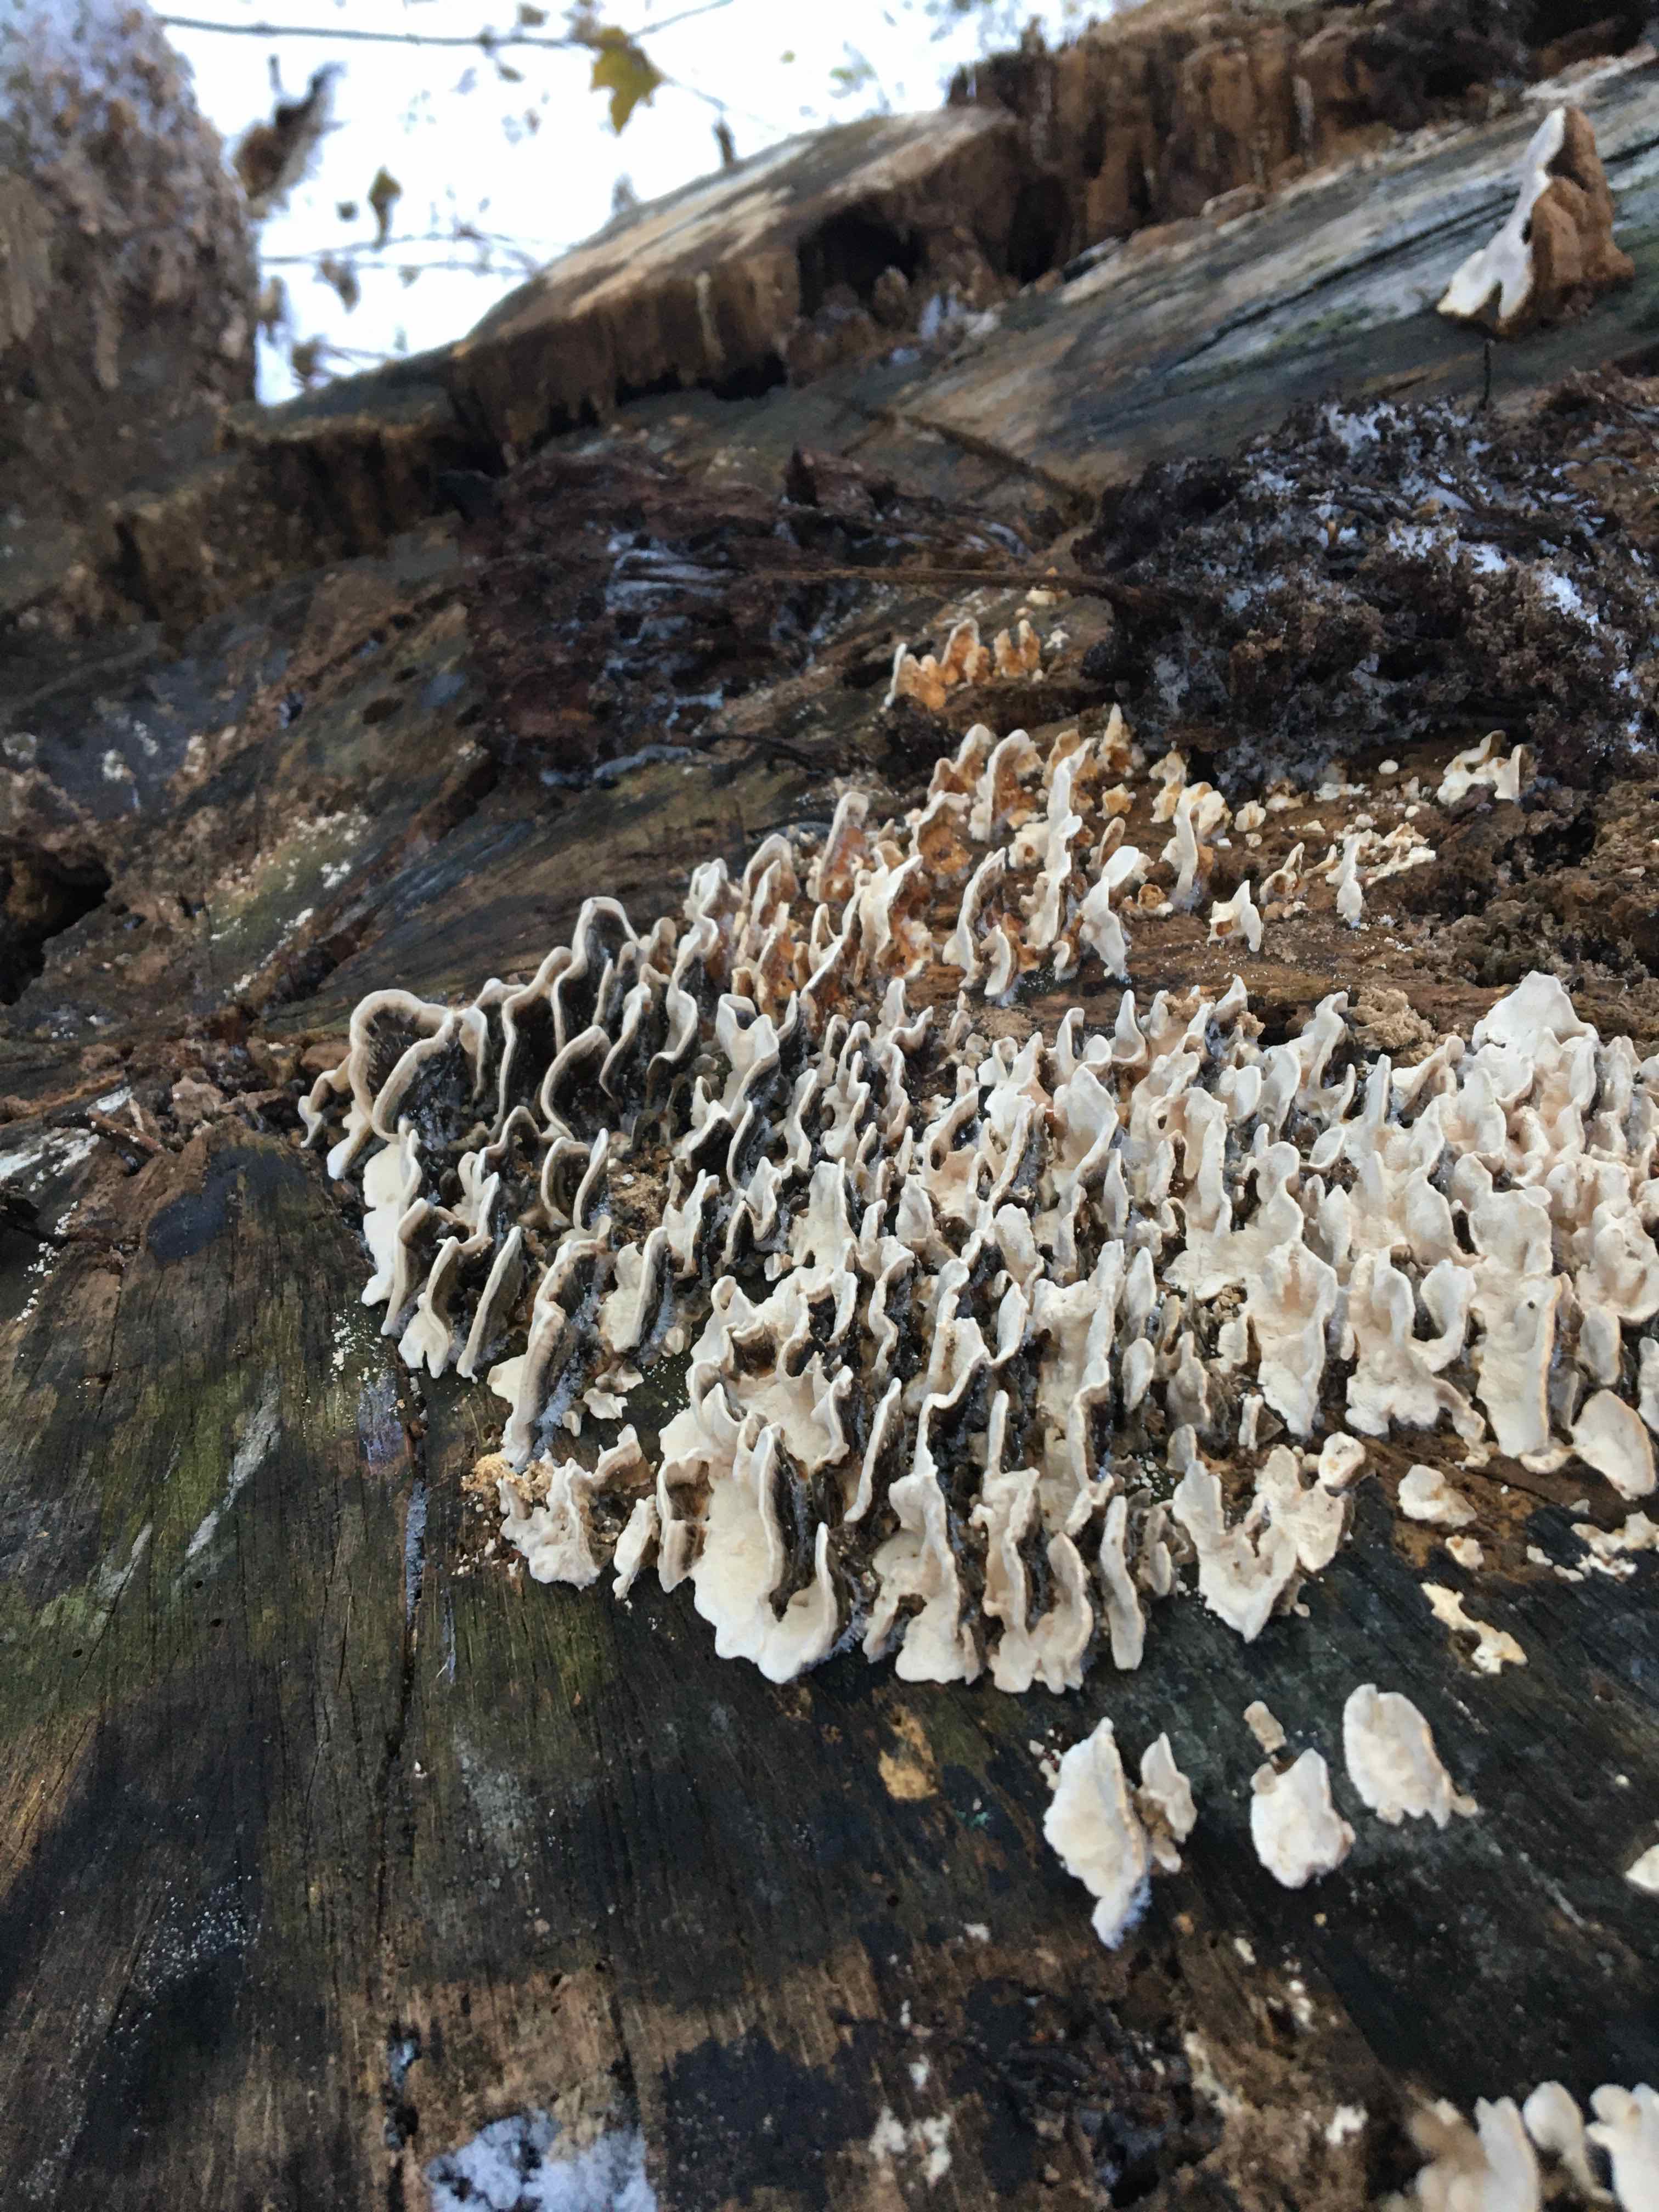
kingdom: Fungi
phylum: Basidiomycota
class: Agaricomycetes
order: Polyporales
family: Polyporaceae
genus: Trametes
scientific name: Trametes versicolor
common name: broget læderporesvamp
